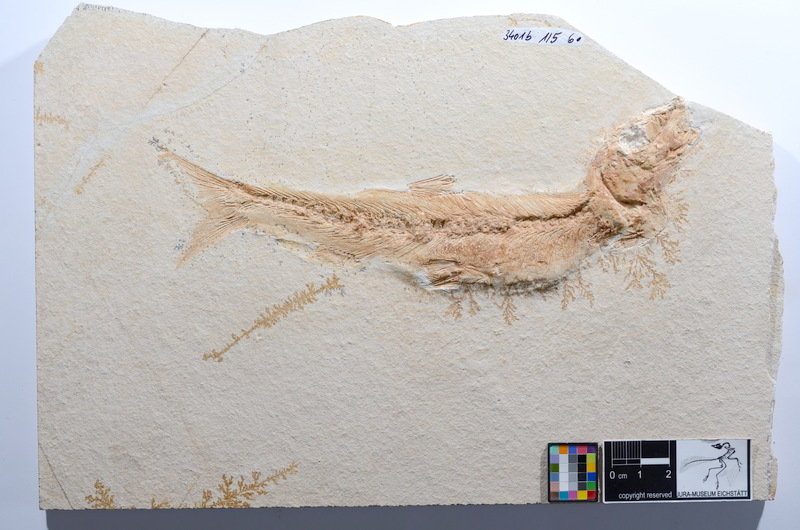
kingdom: Animalia
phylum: Chordata
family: Ascalaboidae
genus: Tharsis
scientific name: Tharsis dubius
